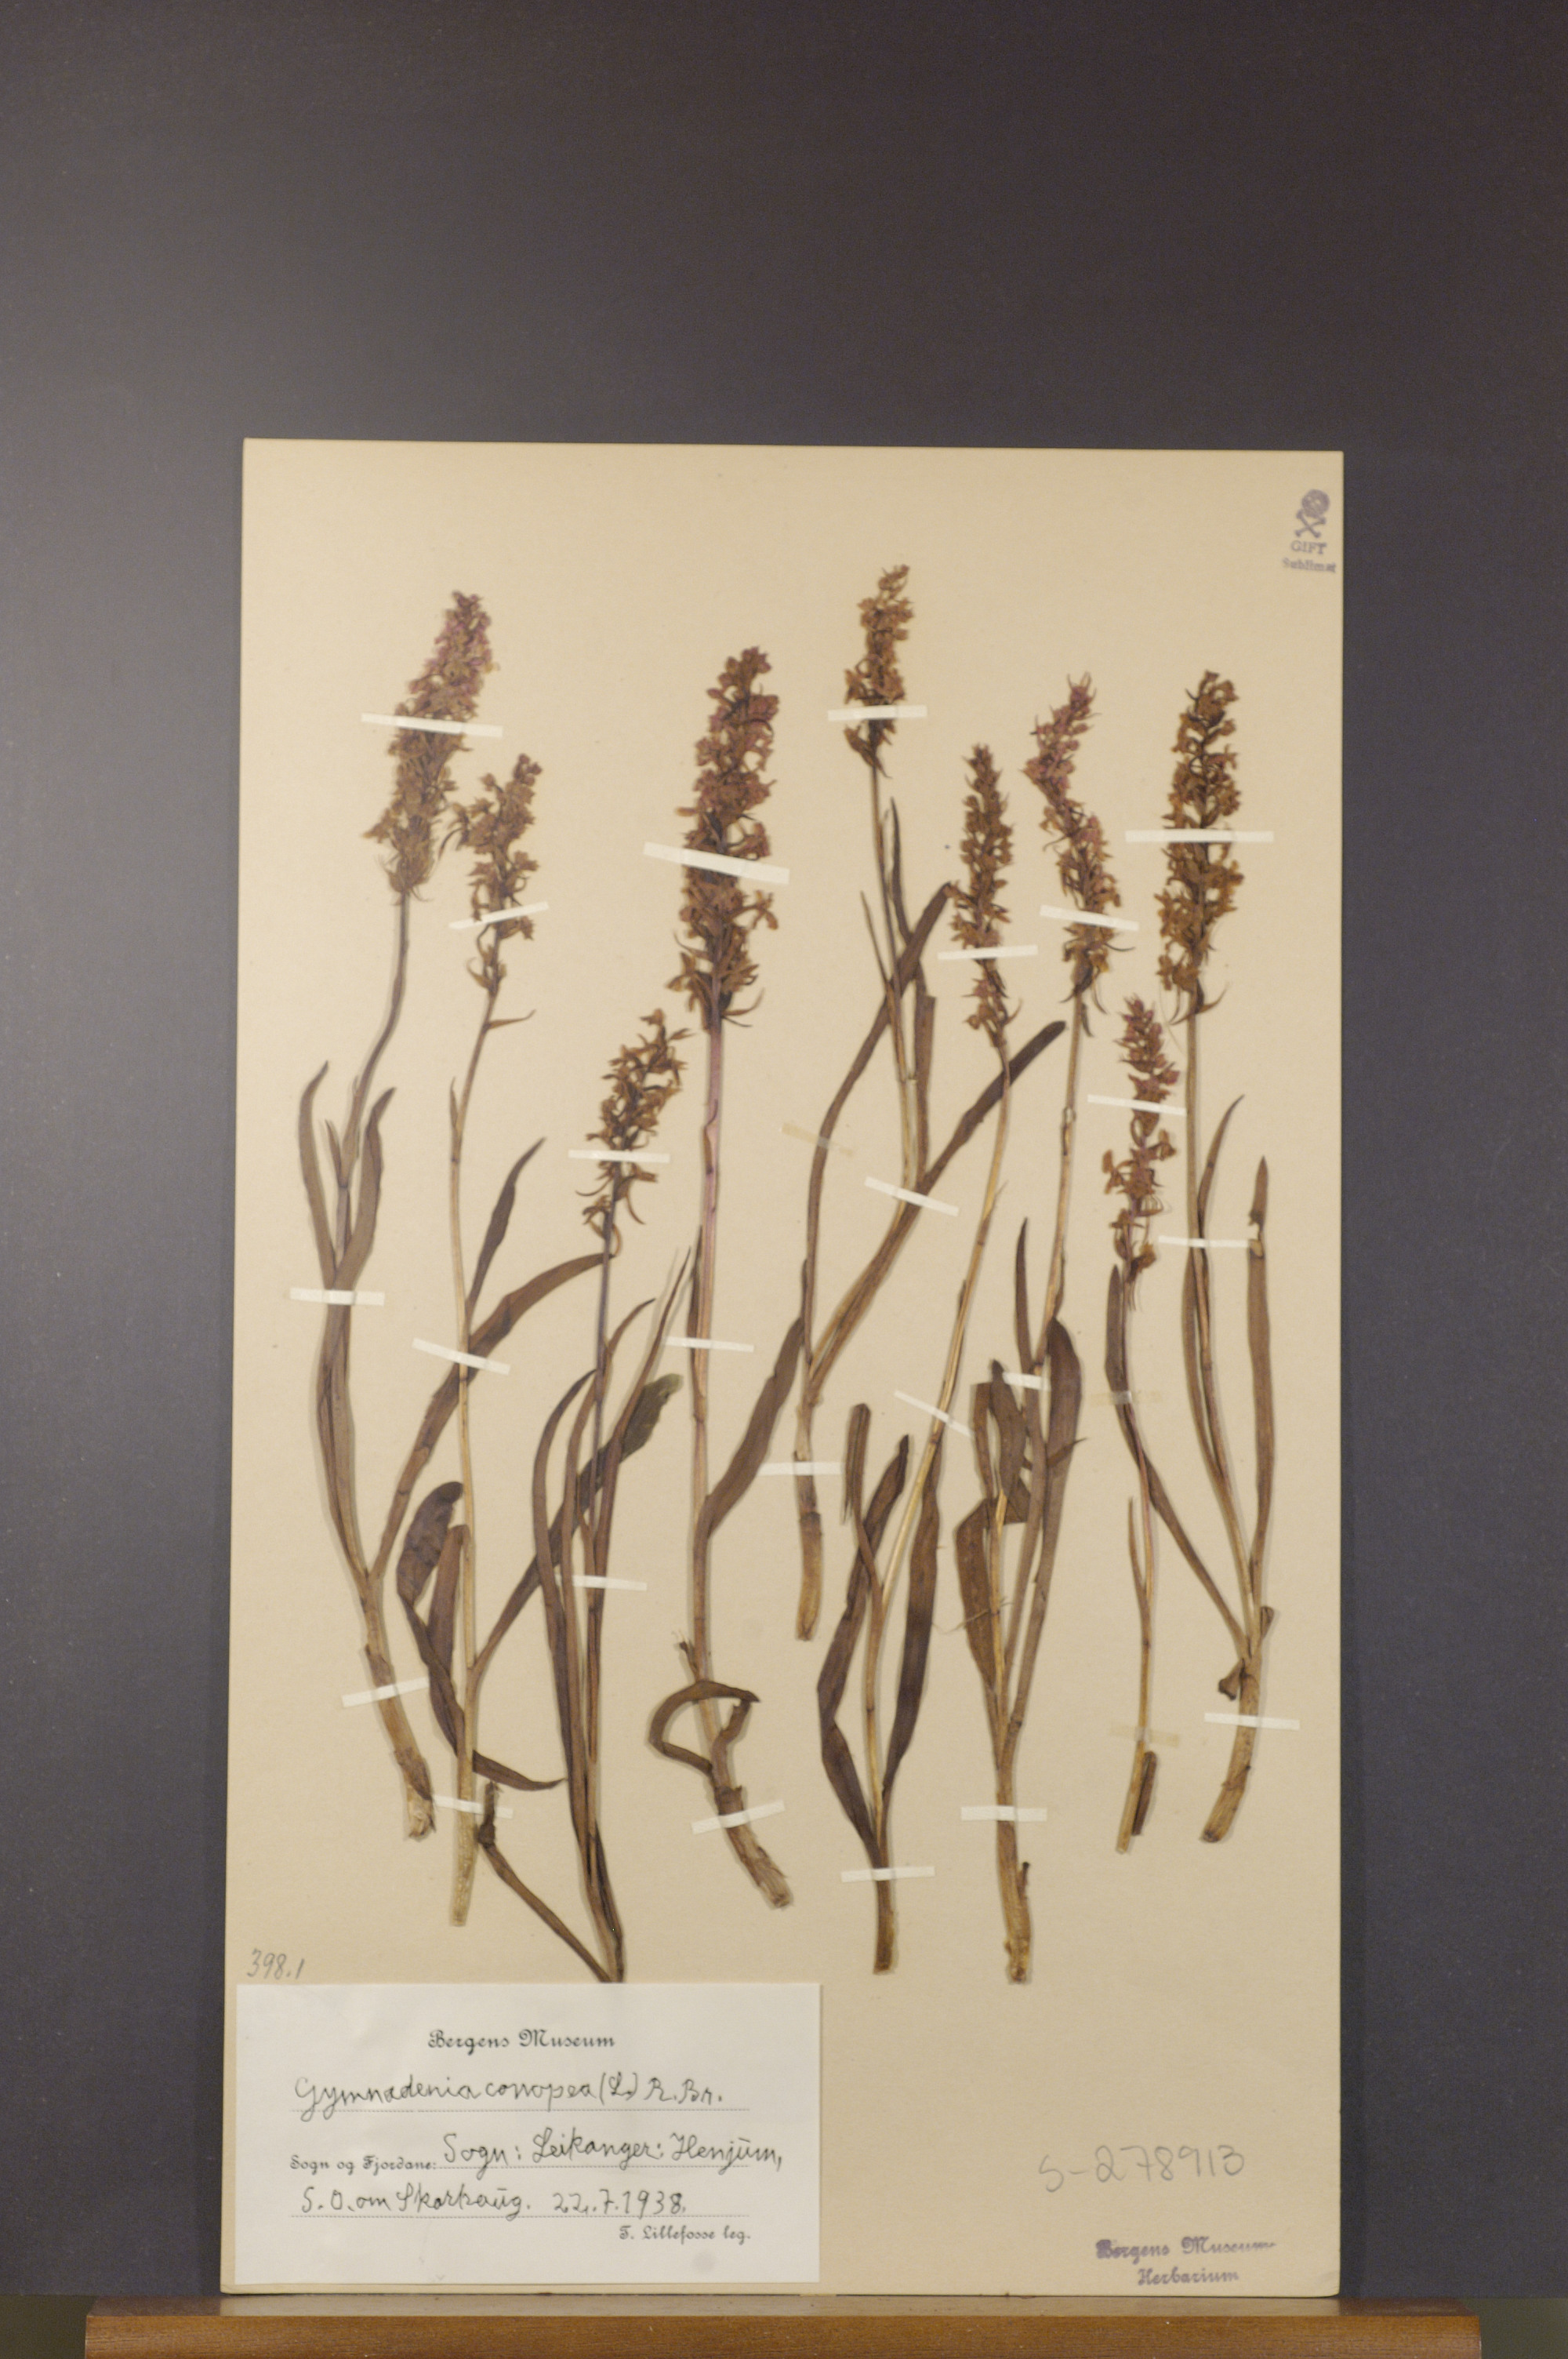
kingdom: Plantae
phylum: Tracheophyta
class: Liliopsida
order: Asparagales
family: Orchidaceae
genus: Gymnadenia
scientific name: Gymnadenia conopsea
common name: Fragrant orchid
